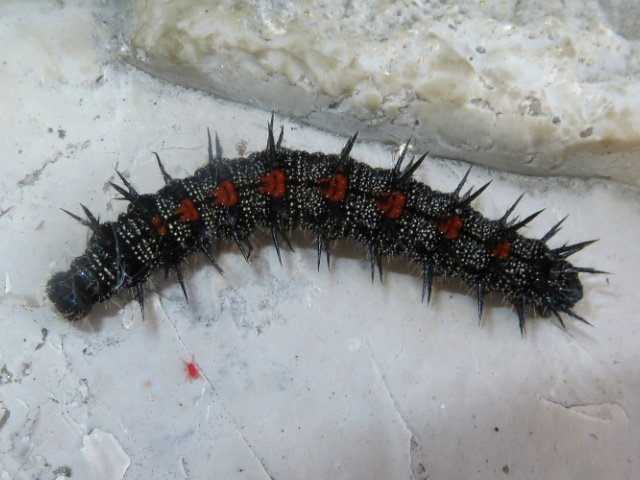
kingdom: Animalia
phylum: Arthropoda
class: Insecta
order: Lepidoptera
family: Nymphalidae
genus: Nymphalis
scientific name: Nymphalis antiopa
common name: Mourning Cloak
